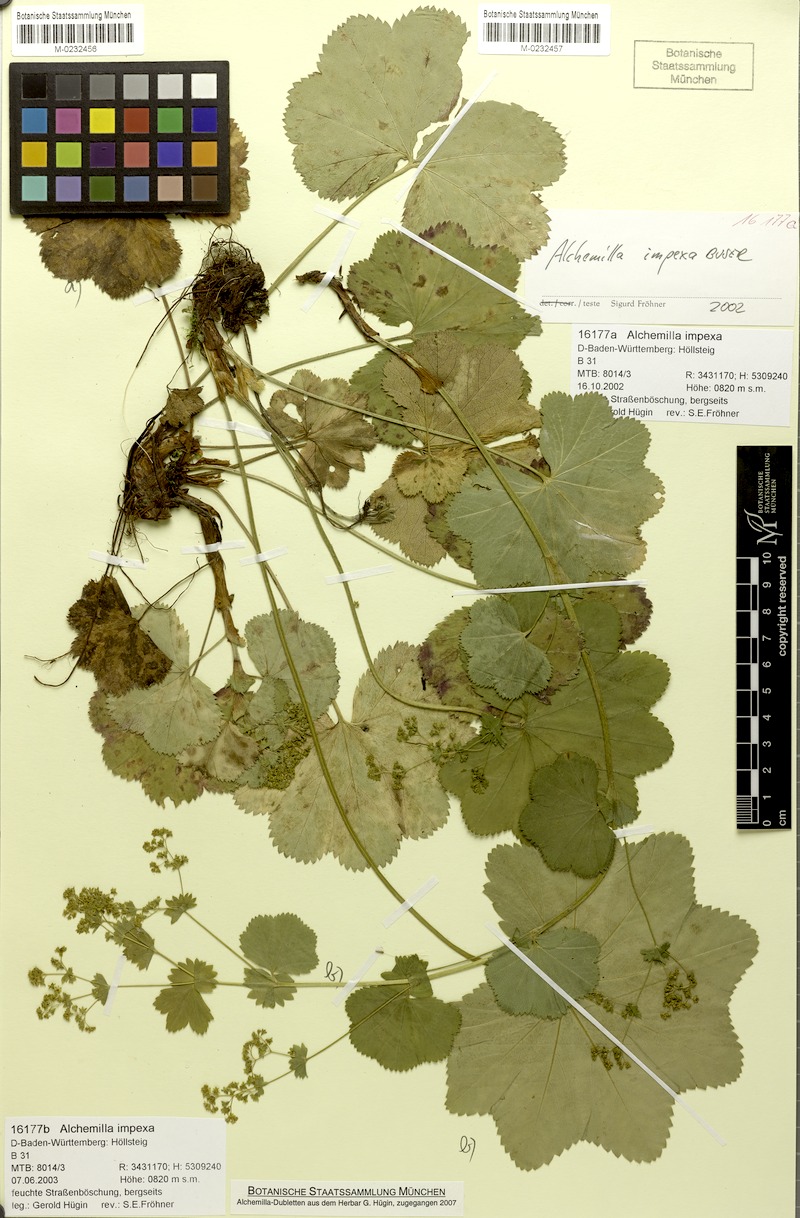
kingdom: Plantae
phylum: Tracheophyta
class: Magnoliopsida
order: Rosales
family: Rosaceae
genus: Alchemilla
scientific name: Alchemilla impexa
